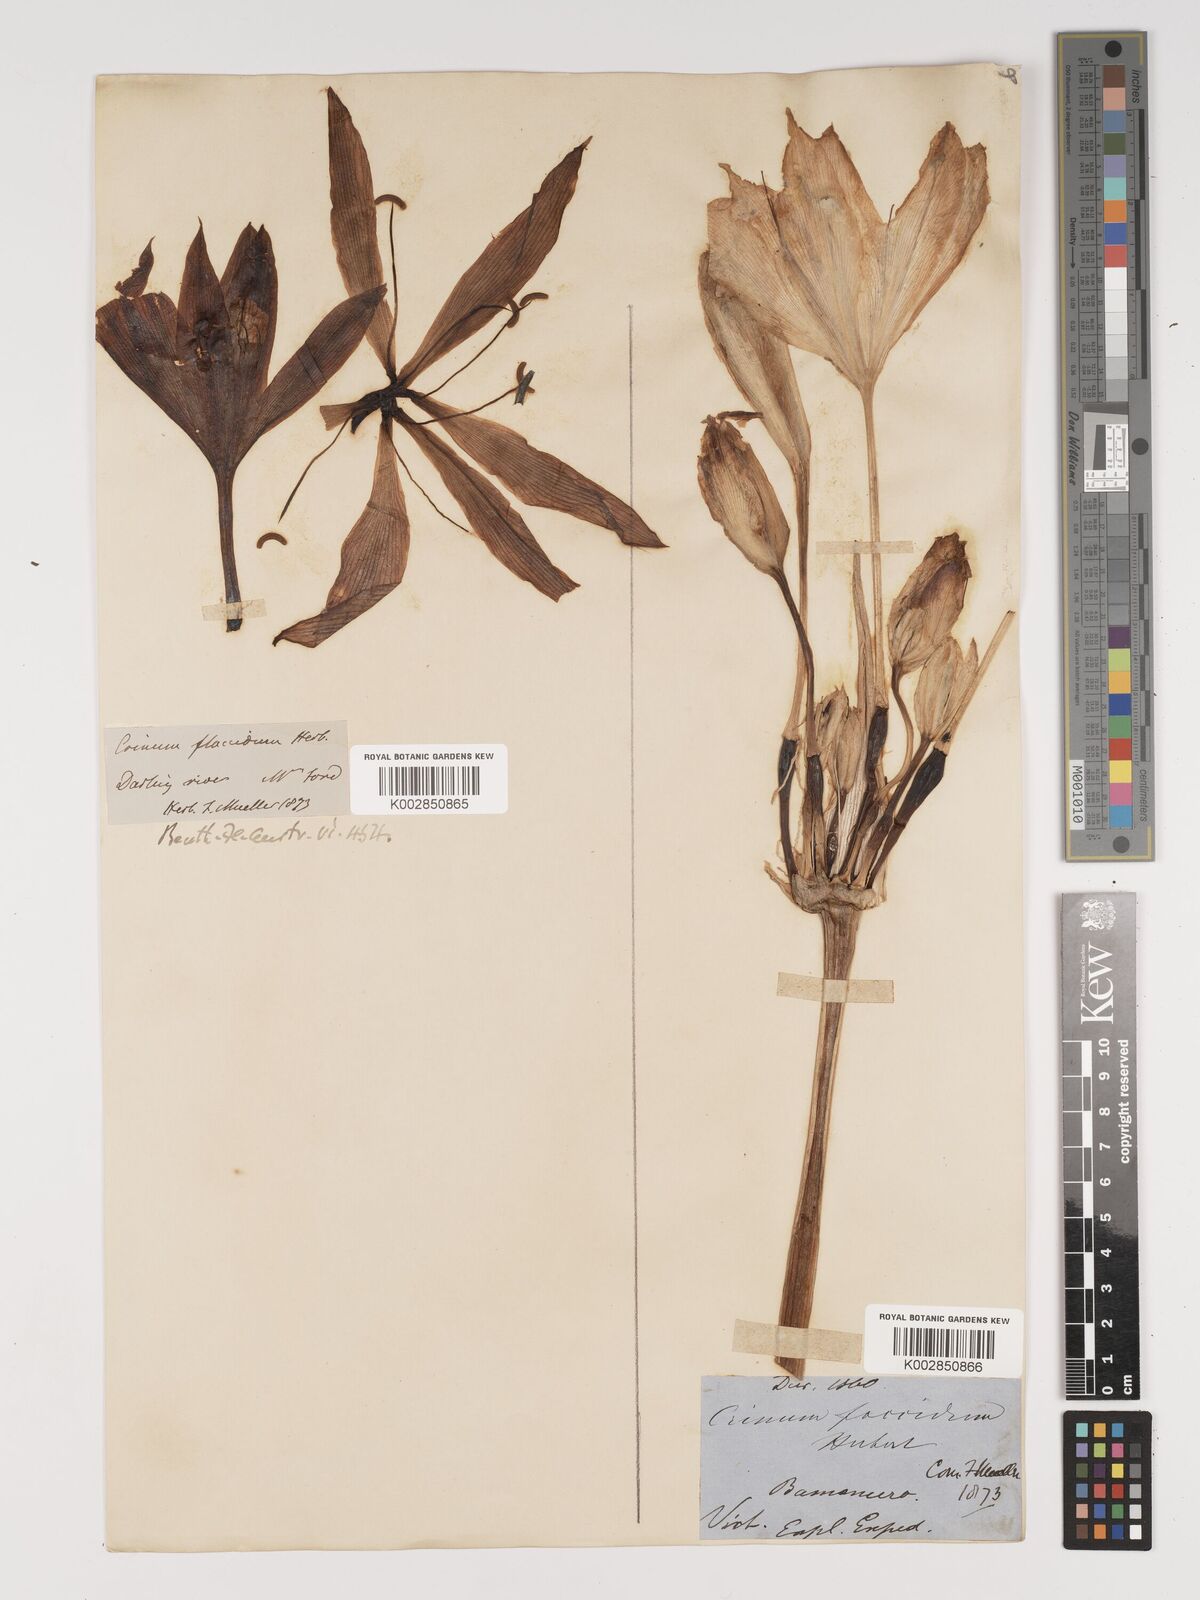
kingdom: Plantae
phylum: Tracheophyta
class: Liliopsida
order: Asparagales
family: Amaryllidaceae
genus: Crinum
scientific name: Crinum flaccidum
